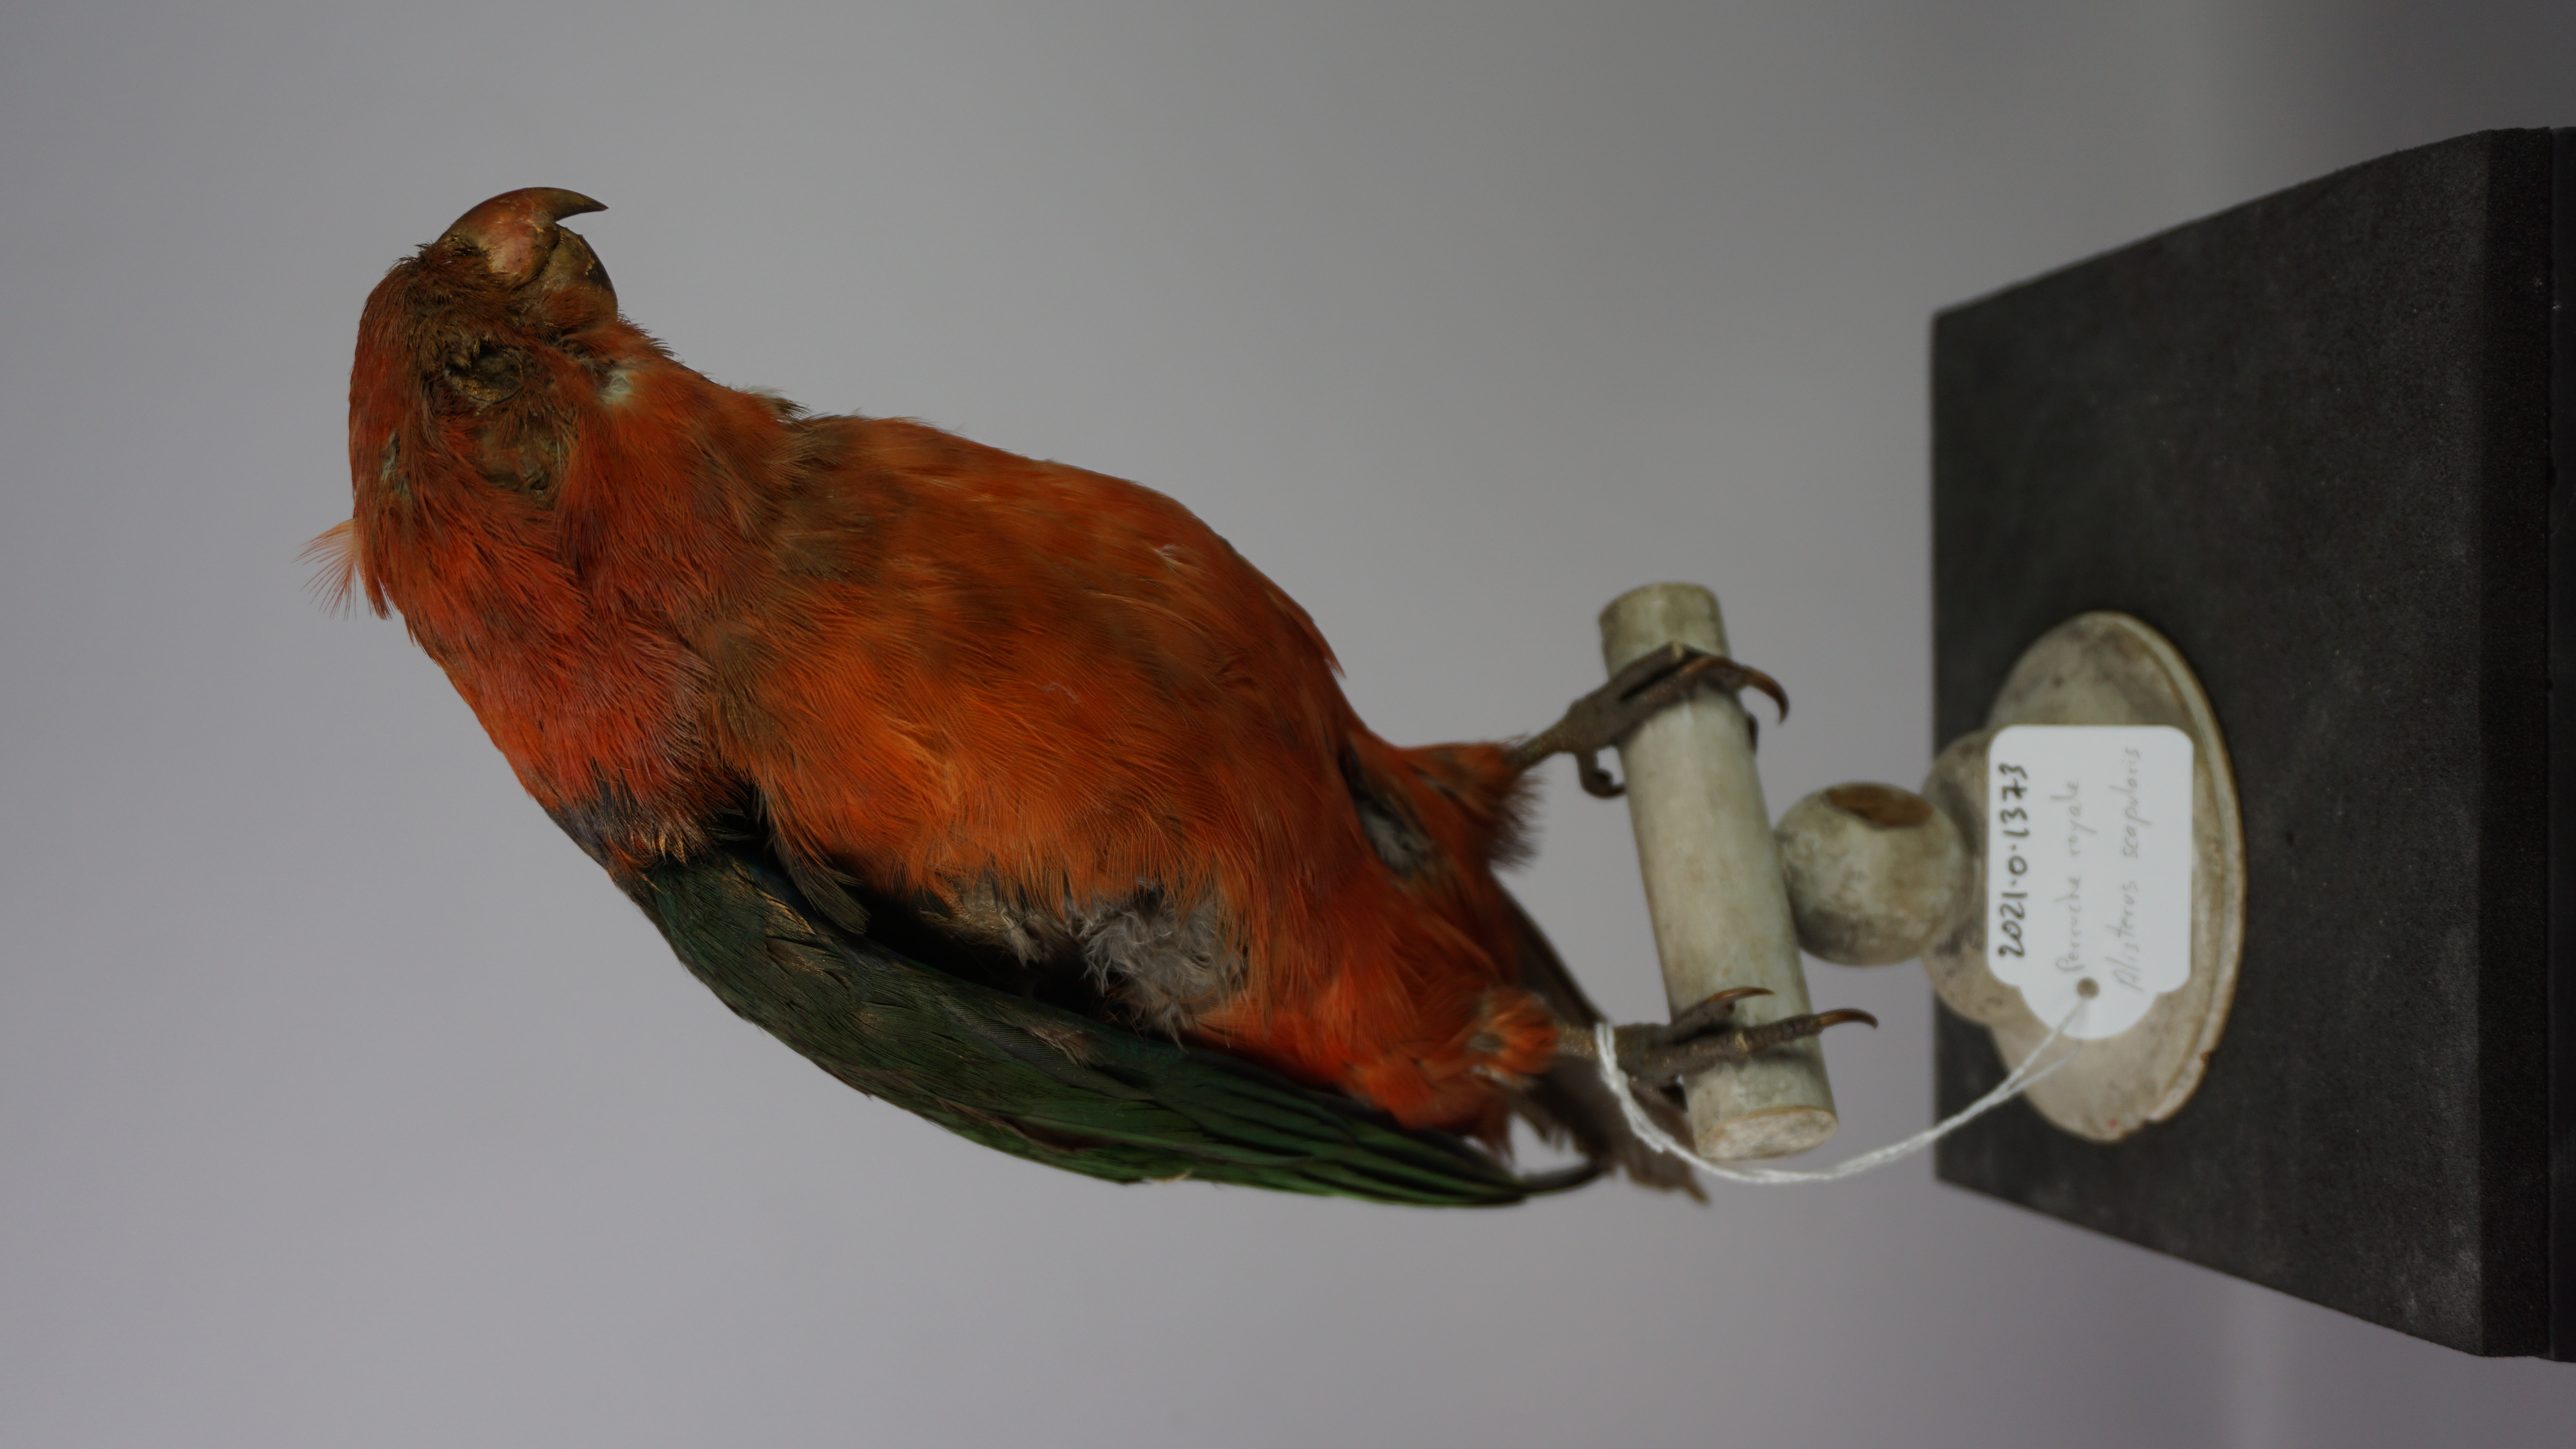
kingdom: Animalia
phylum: Chordata
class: Aves
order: Psittaciformes
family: Psittacidae
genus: Alisterus
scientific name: Alisterus scapularis
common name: Australian king parrot
